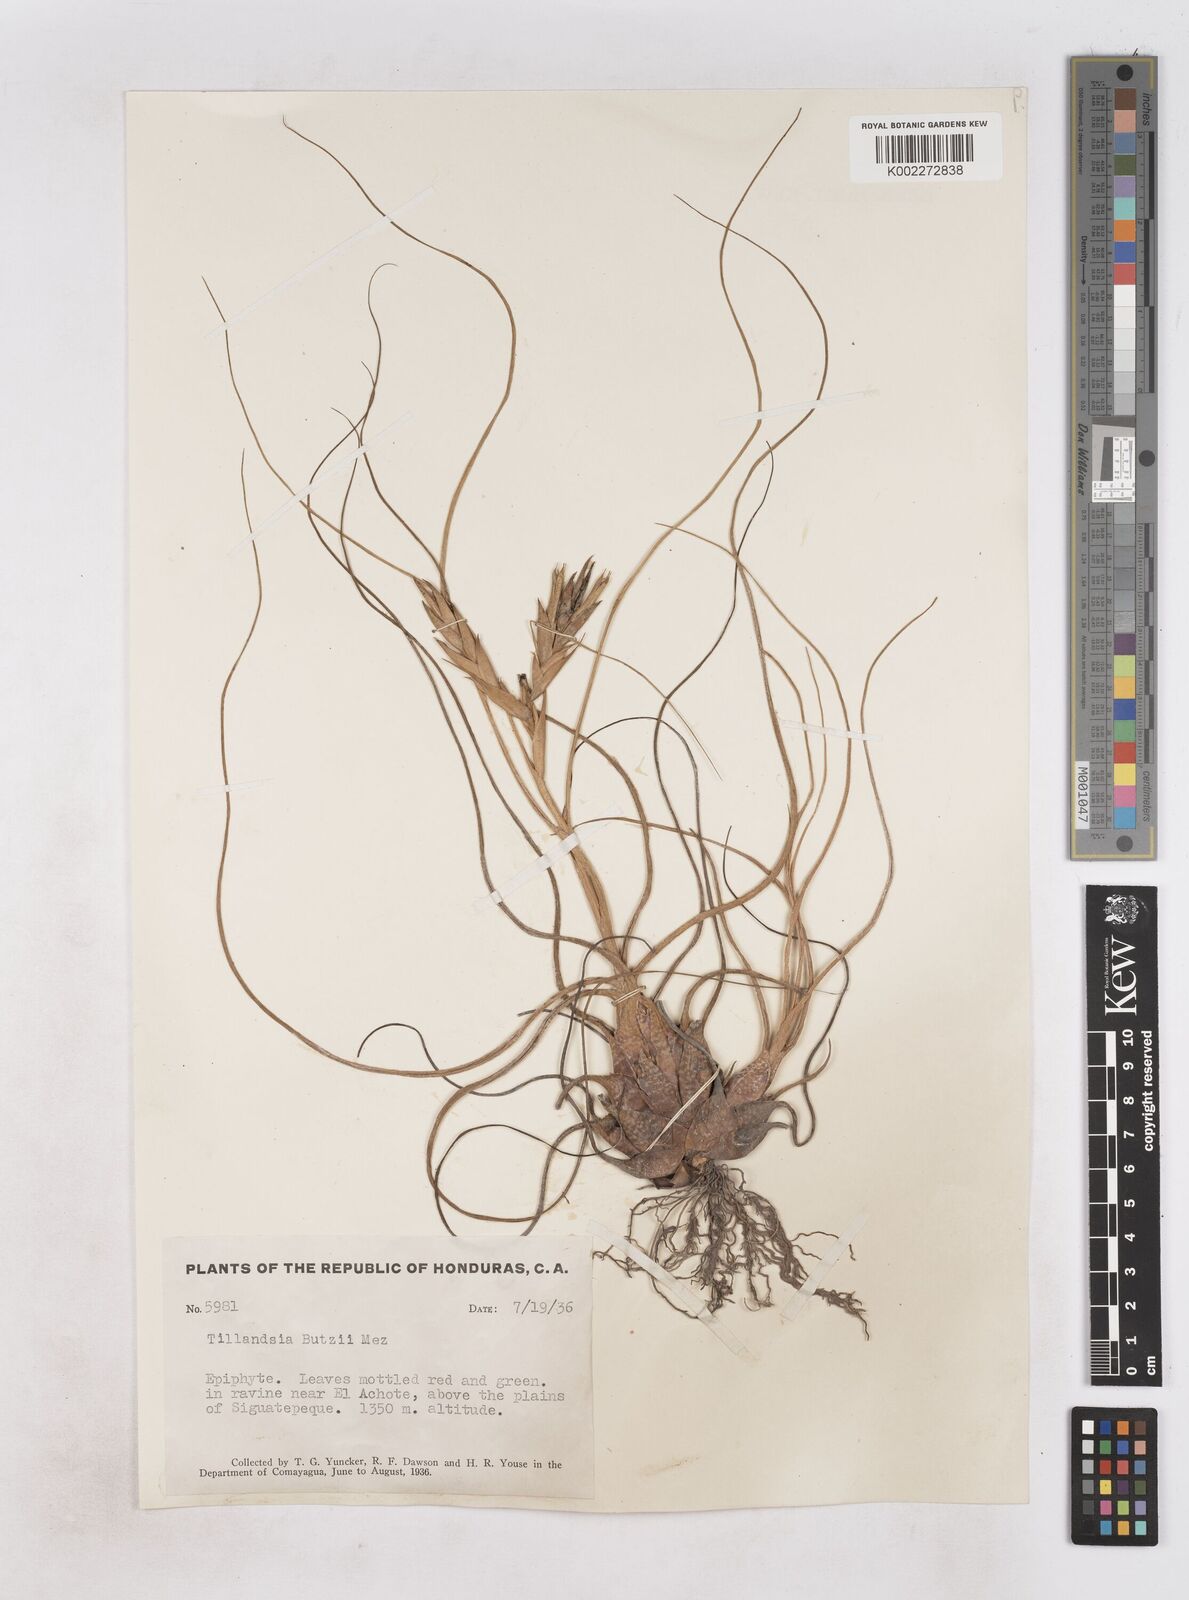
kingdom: Plantae
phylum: Tracheophyta
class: Liliopsida
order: Poales
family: Bromeliaceae
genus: Tillandsia
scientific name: Tillandsia butzii
